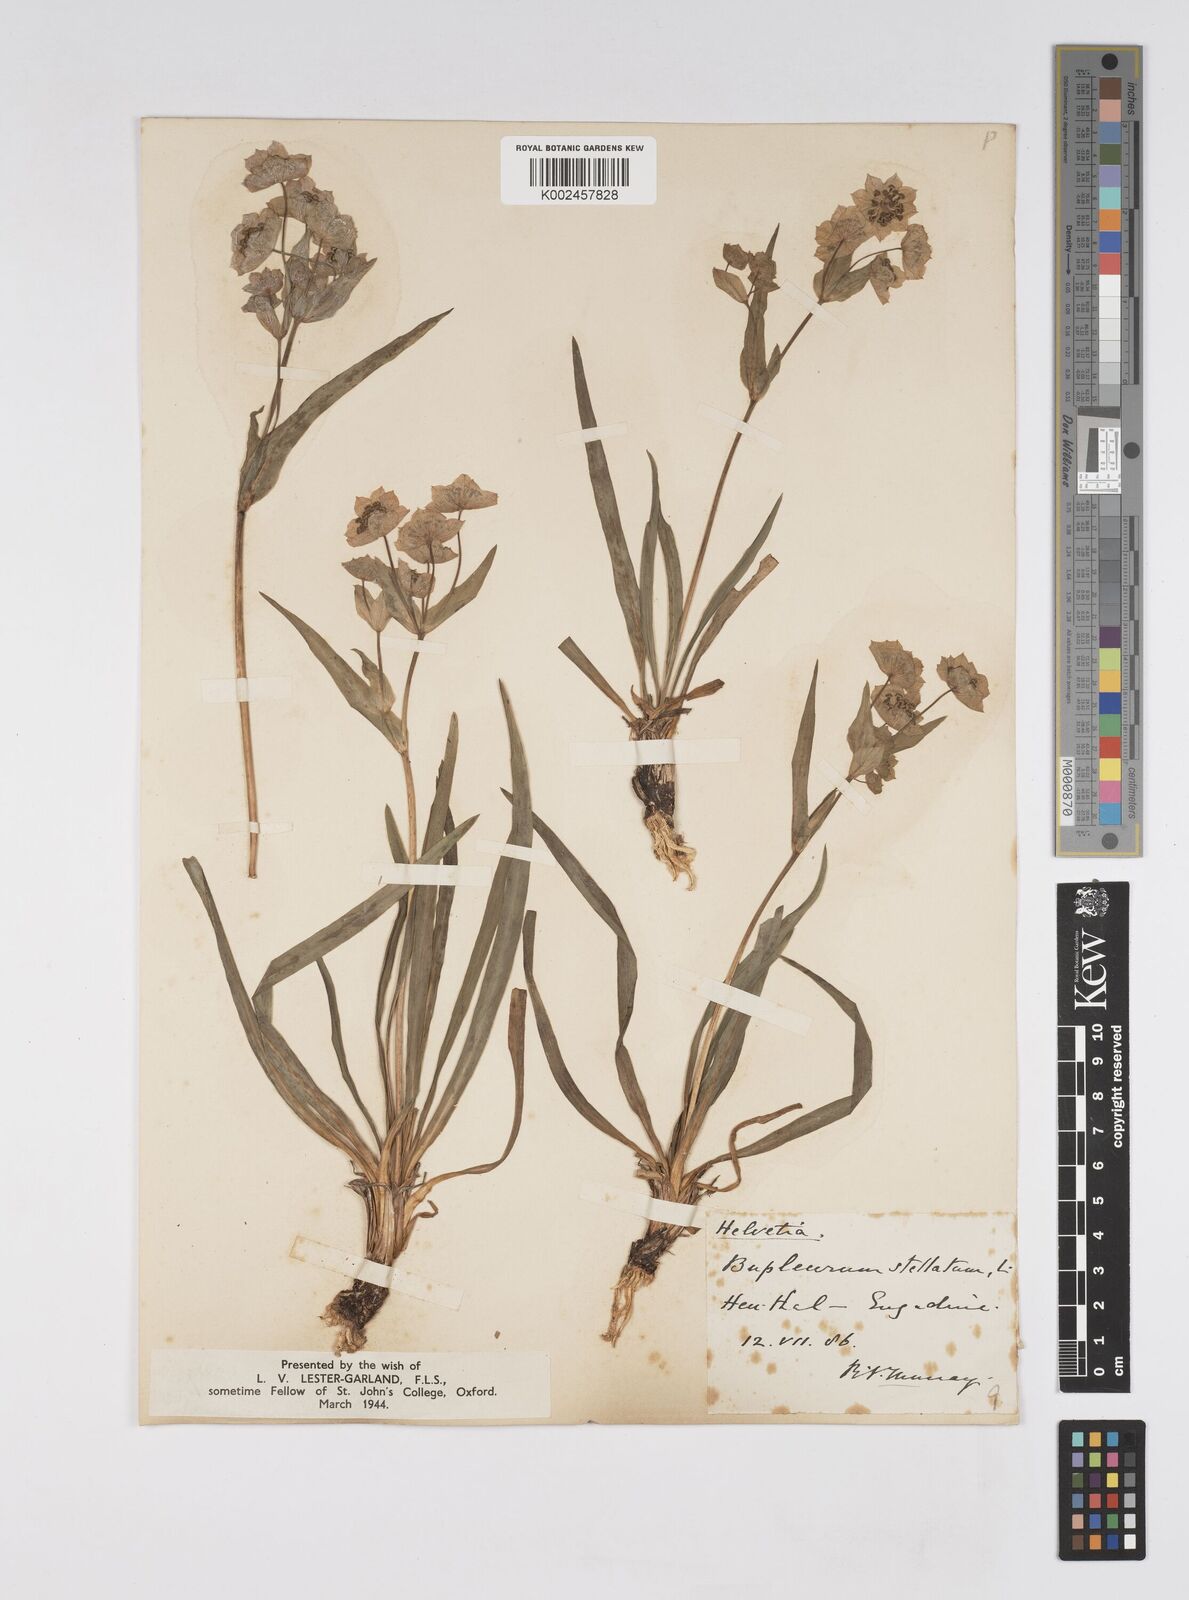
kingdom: Plantae
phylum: Tracheophyta
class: Magnoliopsida
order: Apiales
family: Apiaceae
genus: Bupleurum
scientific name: Bupleurum stellatum
